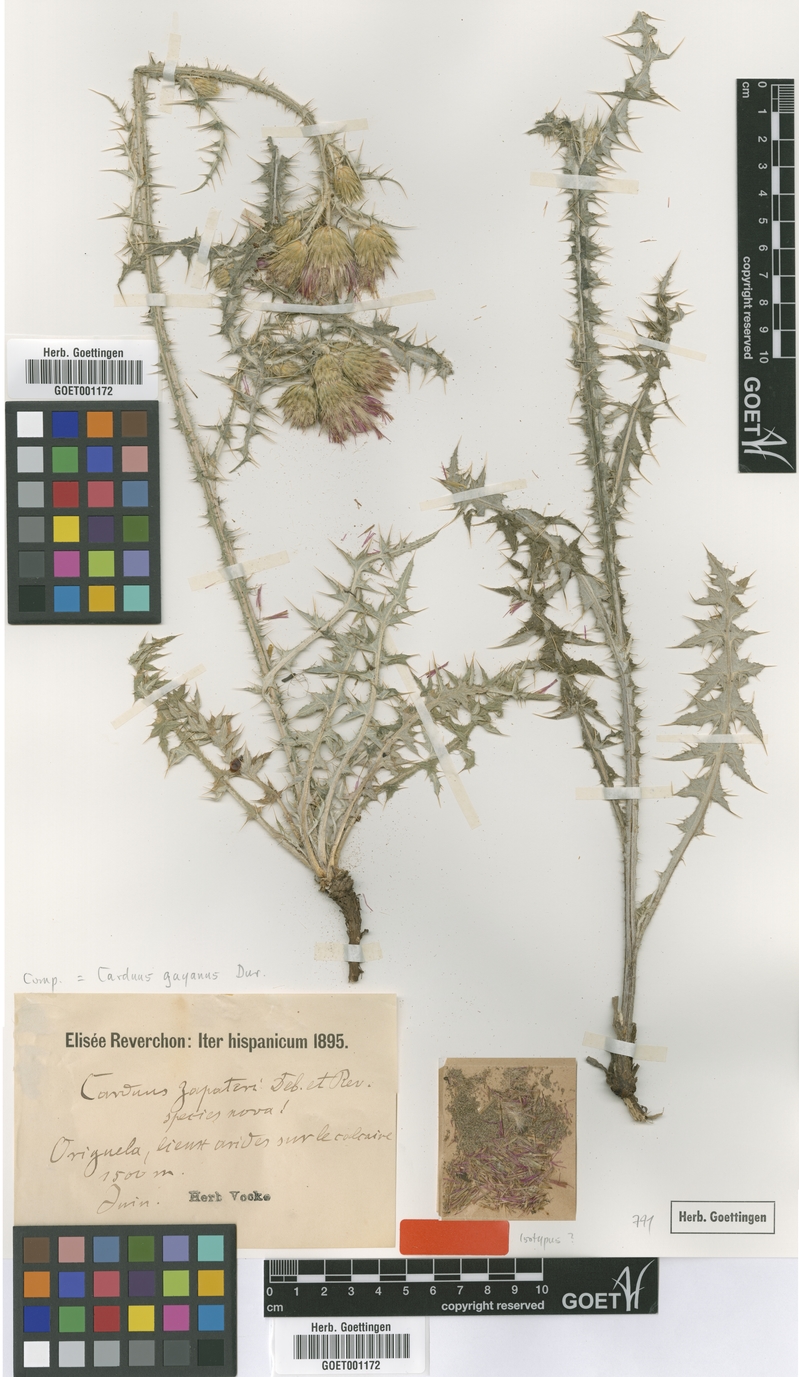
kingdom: Plantae
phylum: Tracheophyta
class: Magnoliopsida
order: Asterales
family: Asteraceae
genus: Carduus
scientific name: Carduus carpetanus
